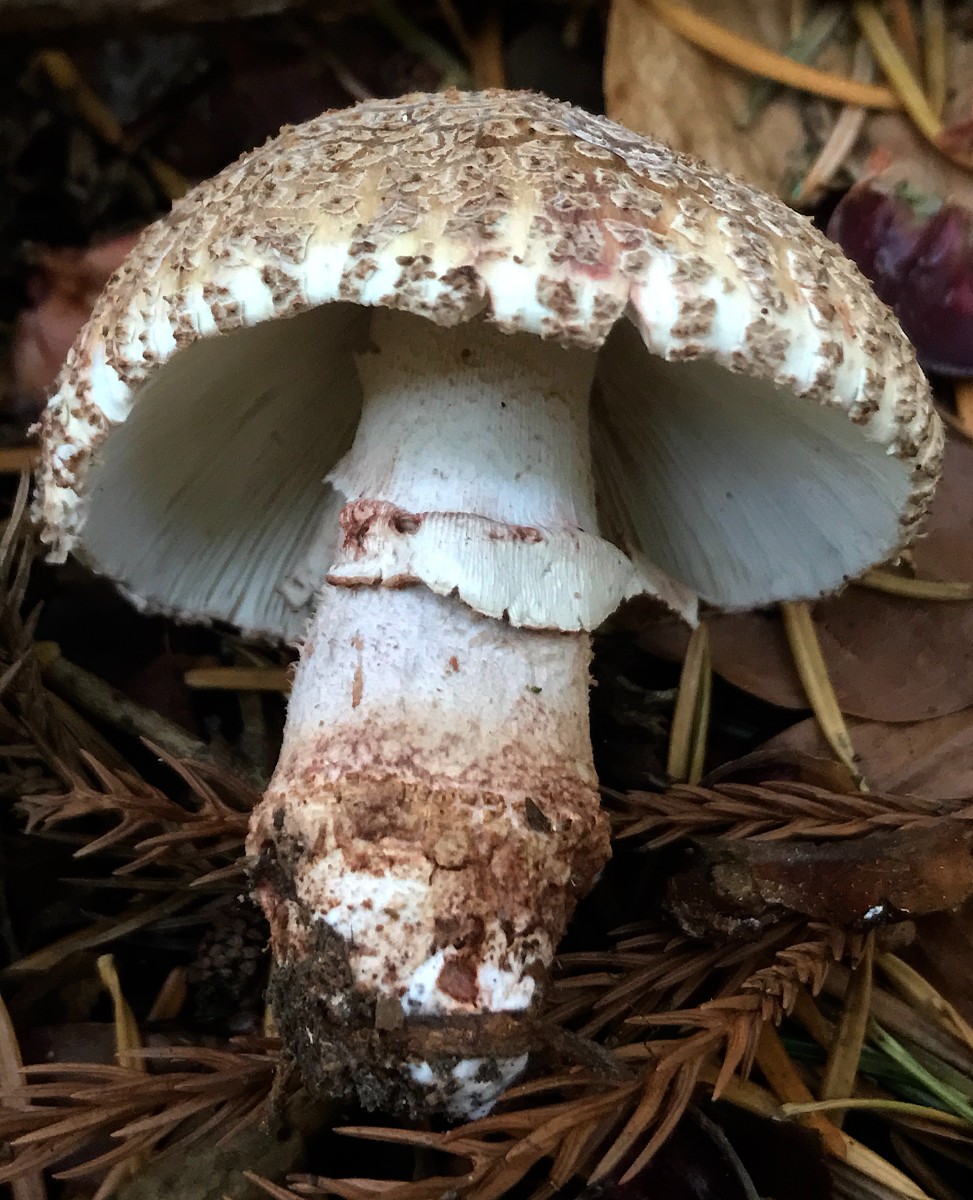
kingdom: Fungi
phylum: Basidiomycota
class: Agaricomycetes
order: Agaricales
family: Amanitaceae
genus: Amanita
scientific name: Amanita rubescens
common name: rødmende fluesvamp
